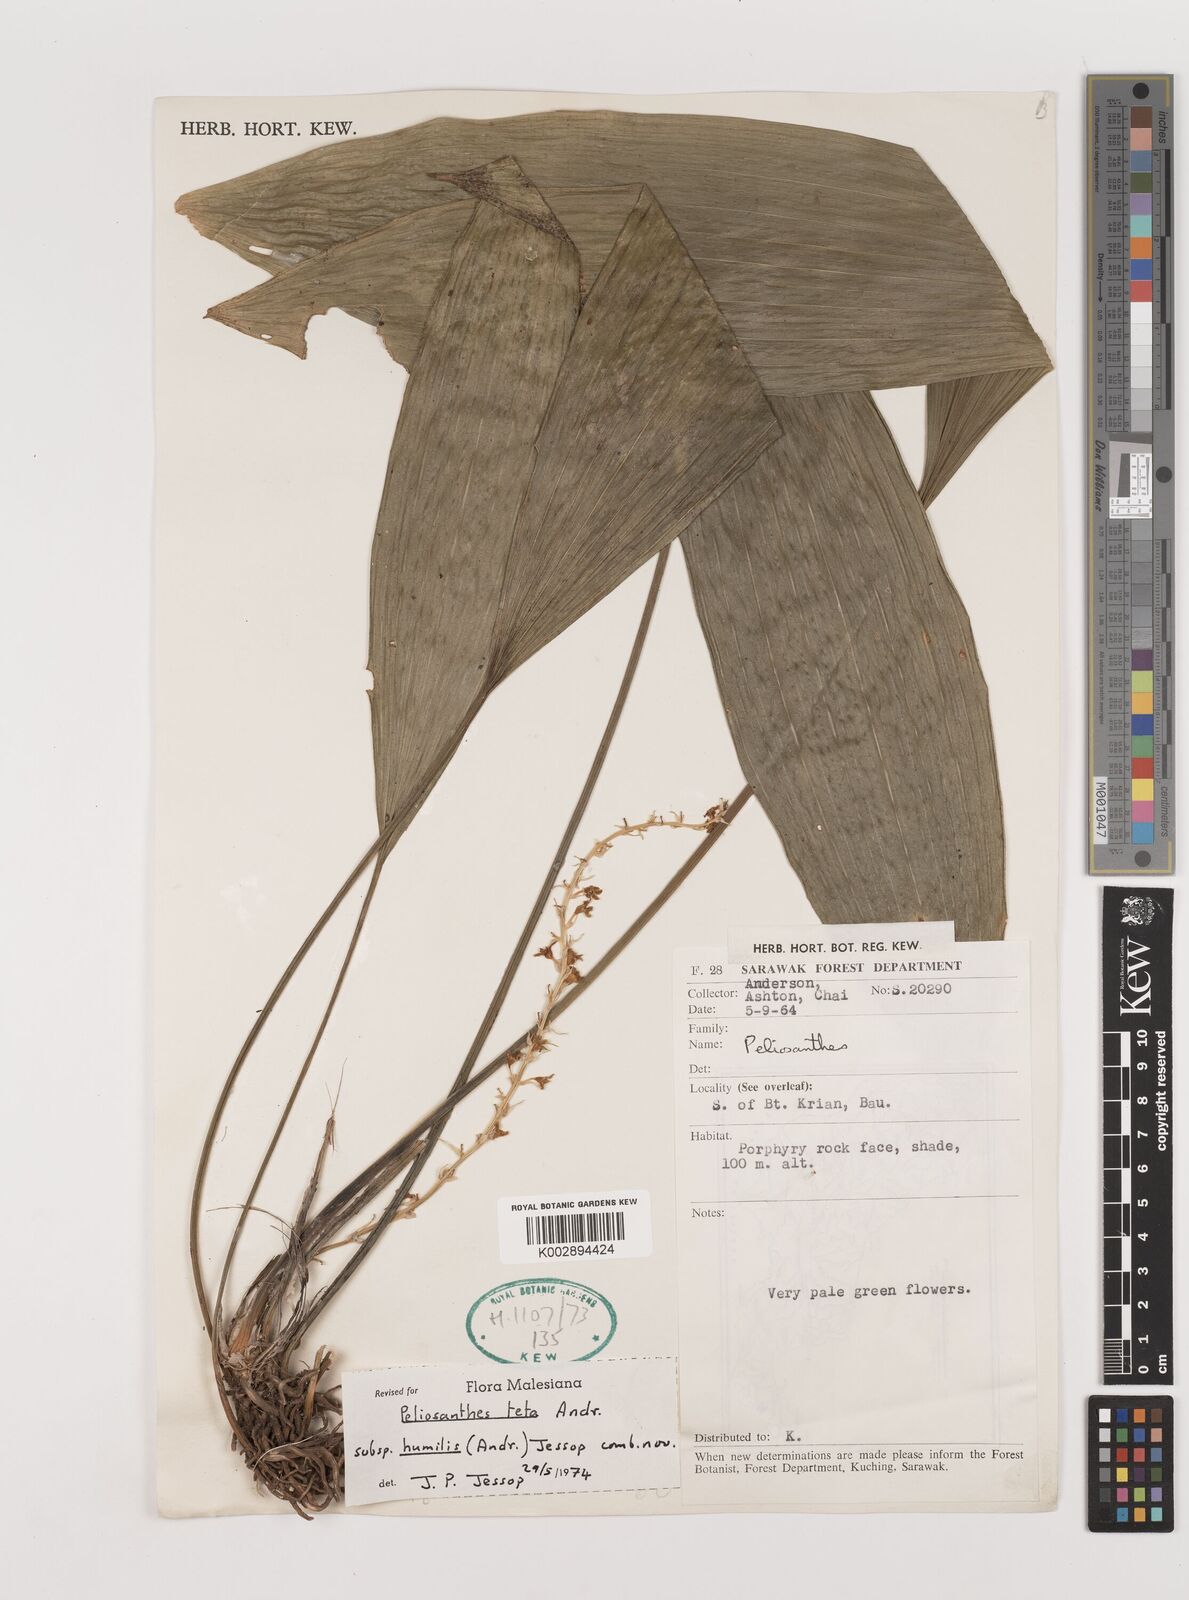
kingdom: Plantae
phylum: Tracheophyta
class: Liliopsida
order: Asparagales
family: Asparagaceae
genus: Peliosanthes
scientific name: Peliosanthes teta
